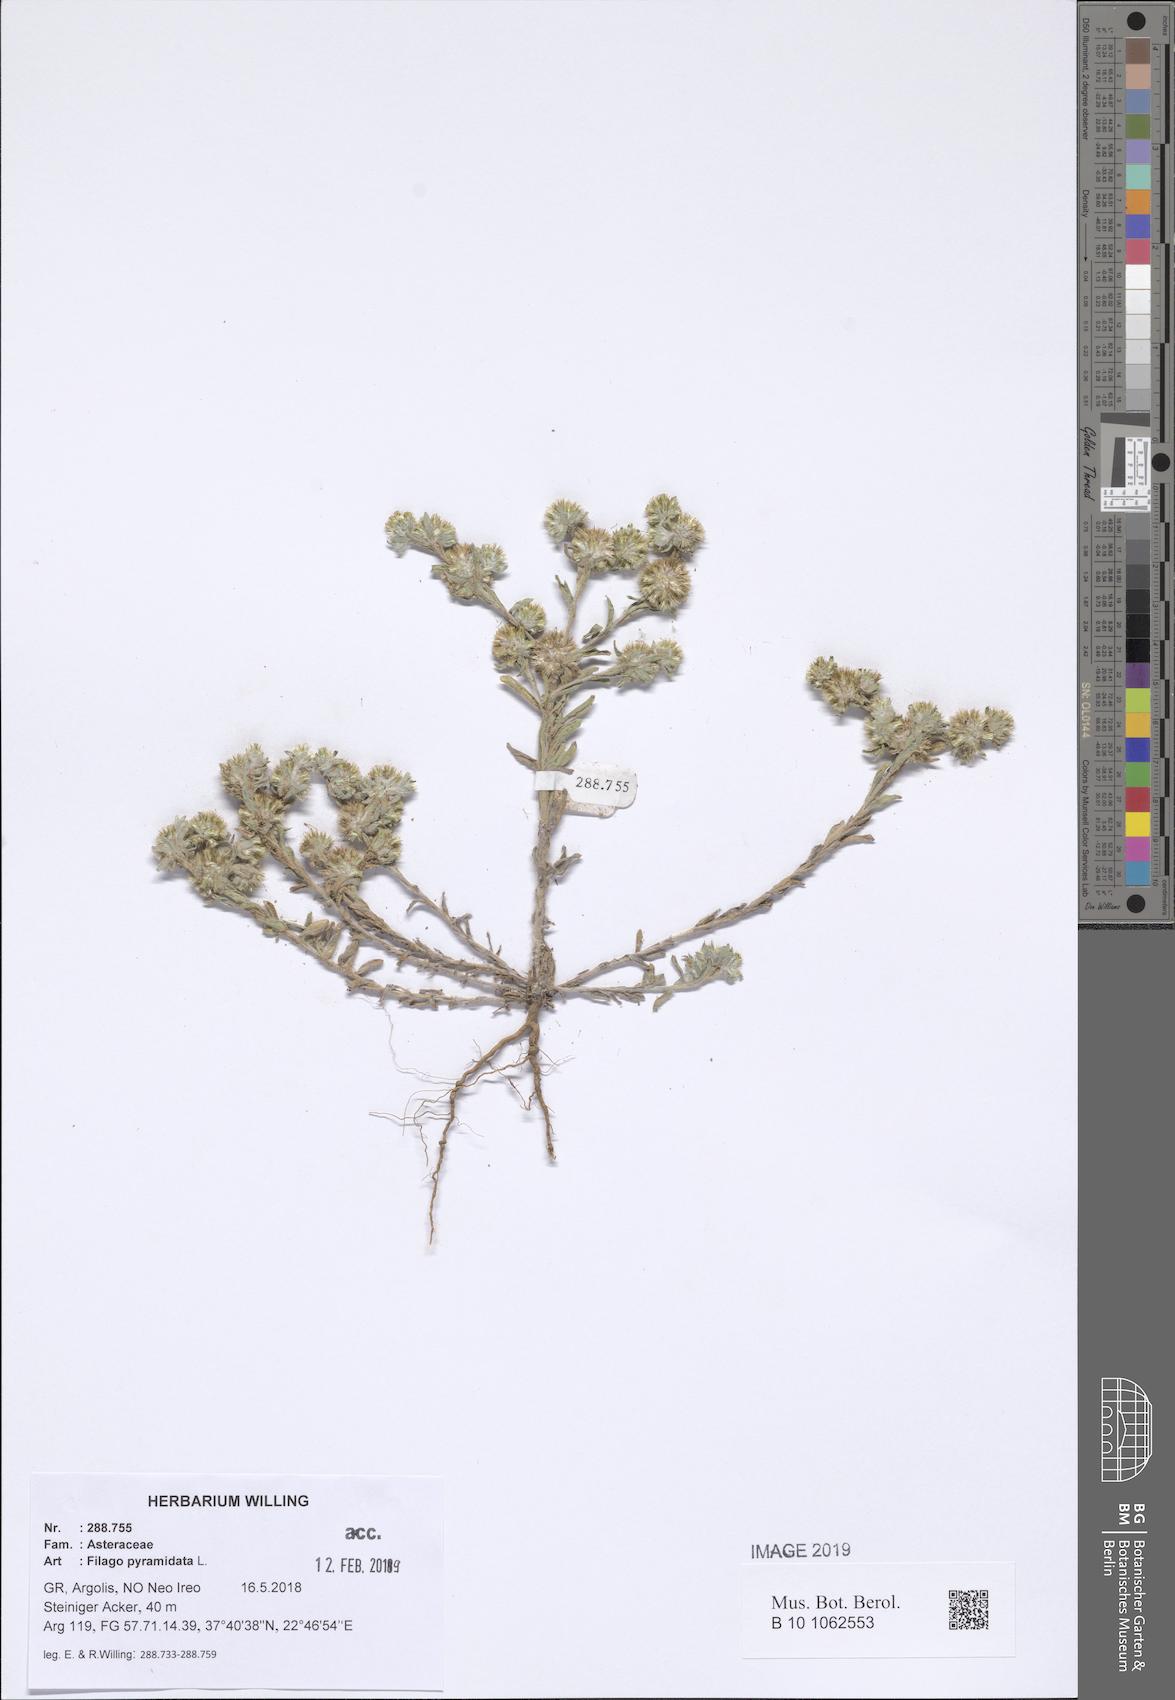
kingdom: Plantae
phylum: Tracheophyta
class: Magnoliopsida
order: Asterales
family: Asteraceae
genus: Filago
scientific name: Filago pyramidata
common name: Broad-leaved cudweed
